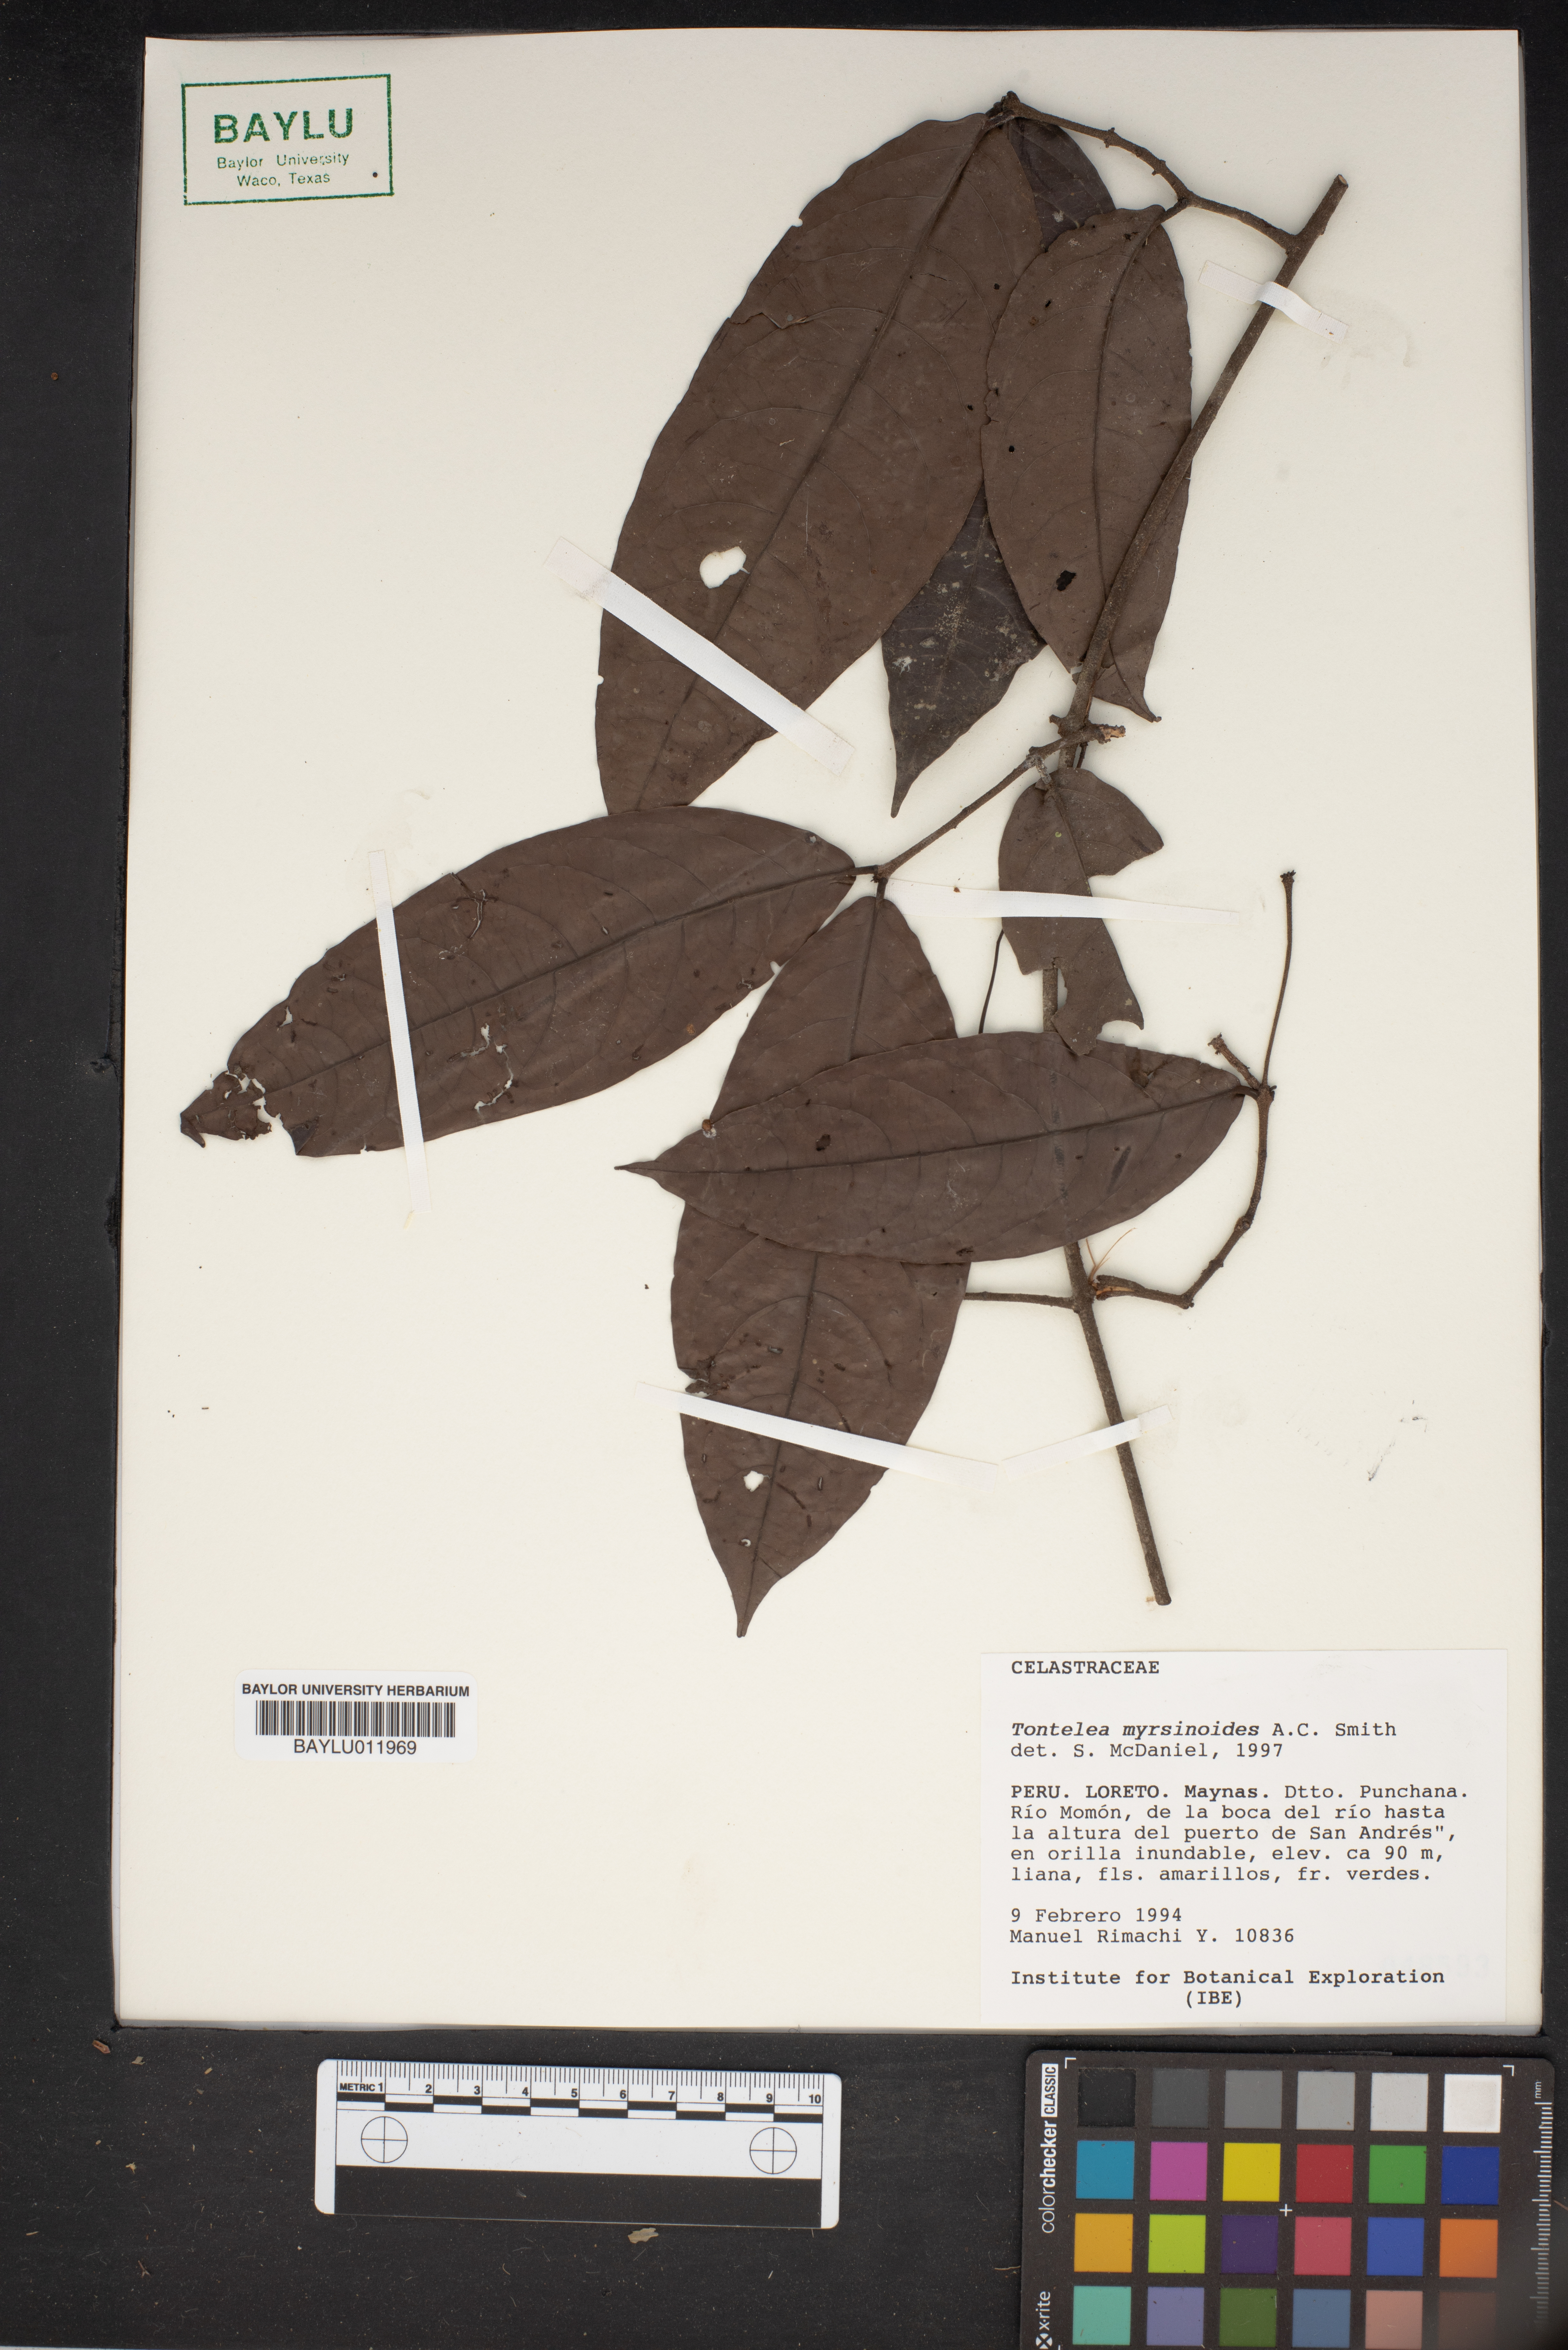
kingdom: Plantae
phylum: Tracheophyta
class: Magnoliopsida
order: Celastrales
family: Celastraceae
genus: Peritassa
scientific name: Peritassa myrsinoides
